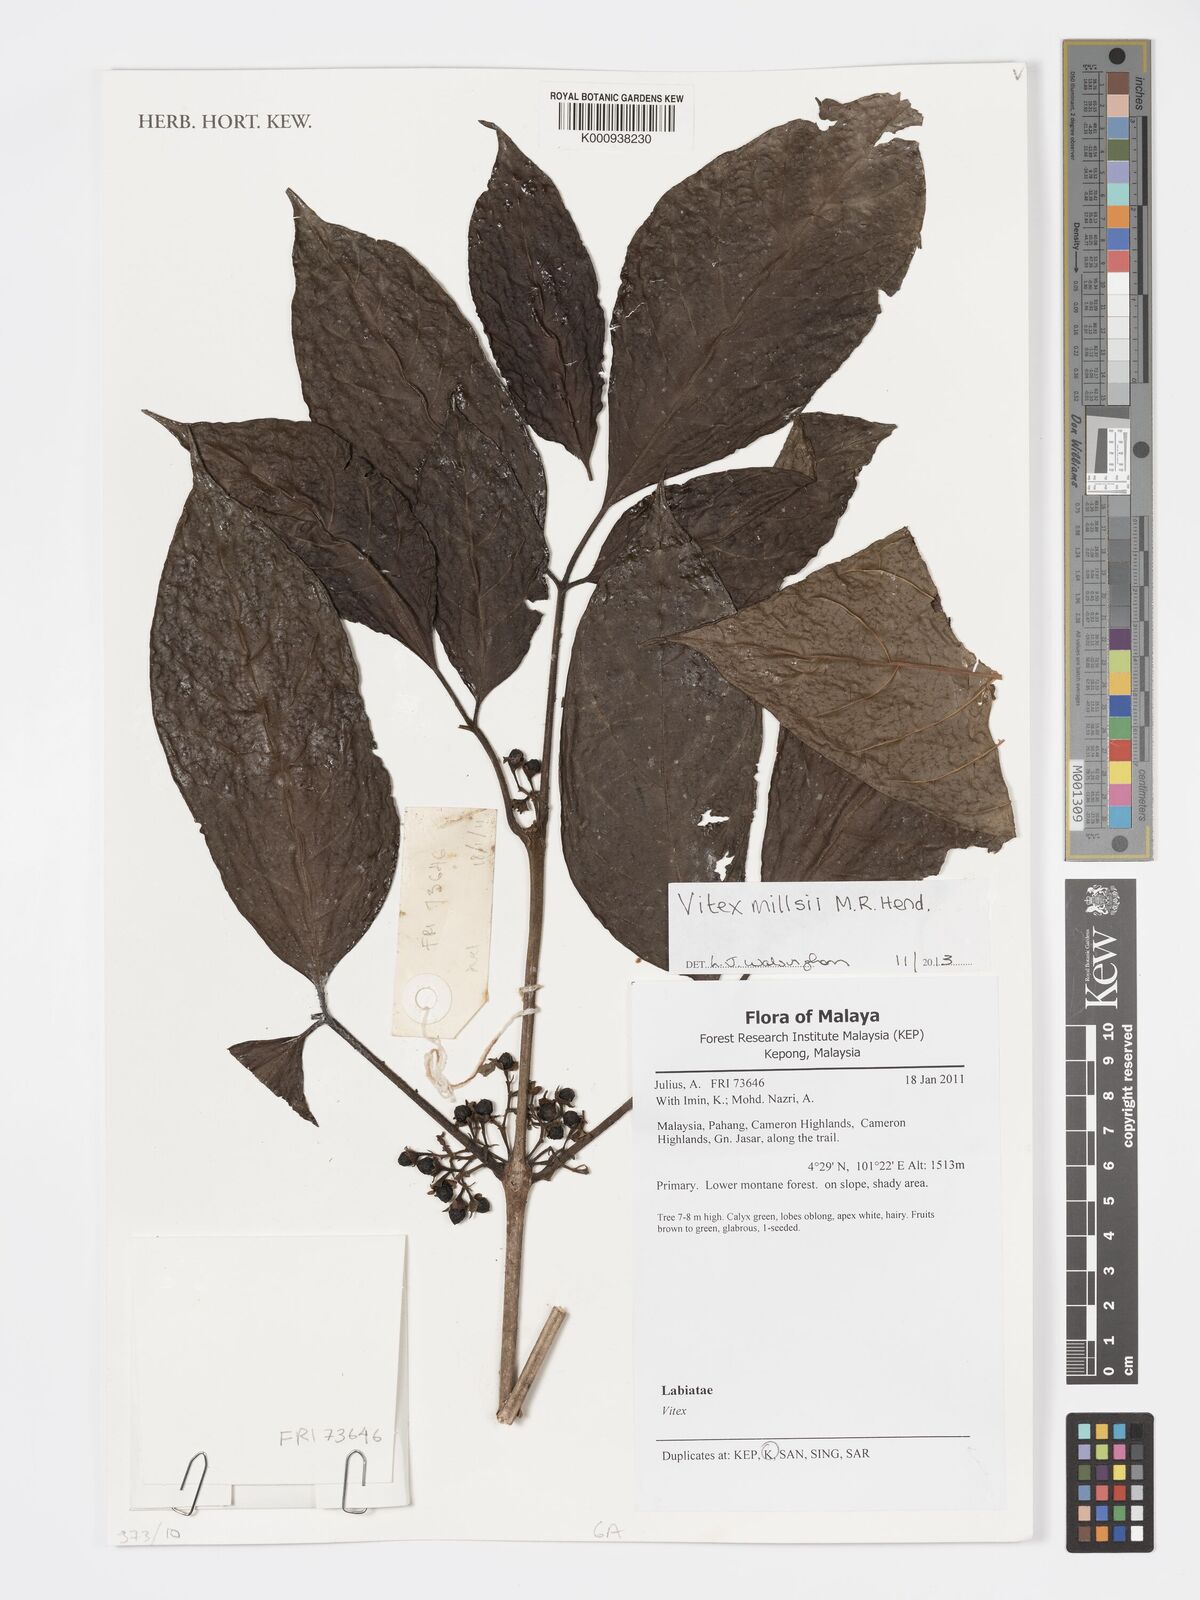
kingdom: Plantae
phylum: Tracheophyta
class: Magnoliopsida
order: Lamiales
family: Lamiaceae
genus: Vitex
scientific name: Vitex millsii
